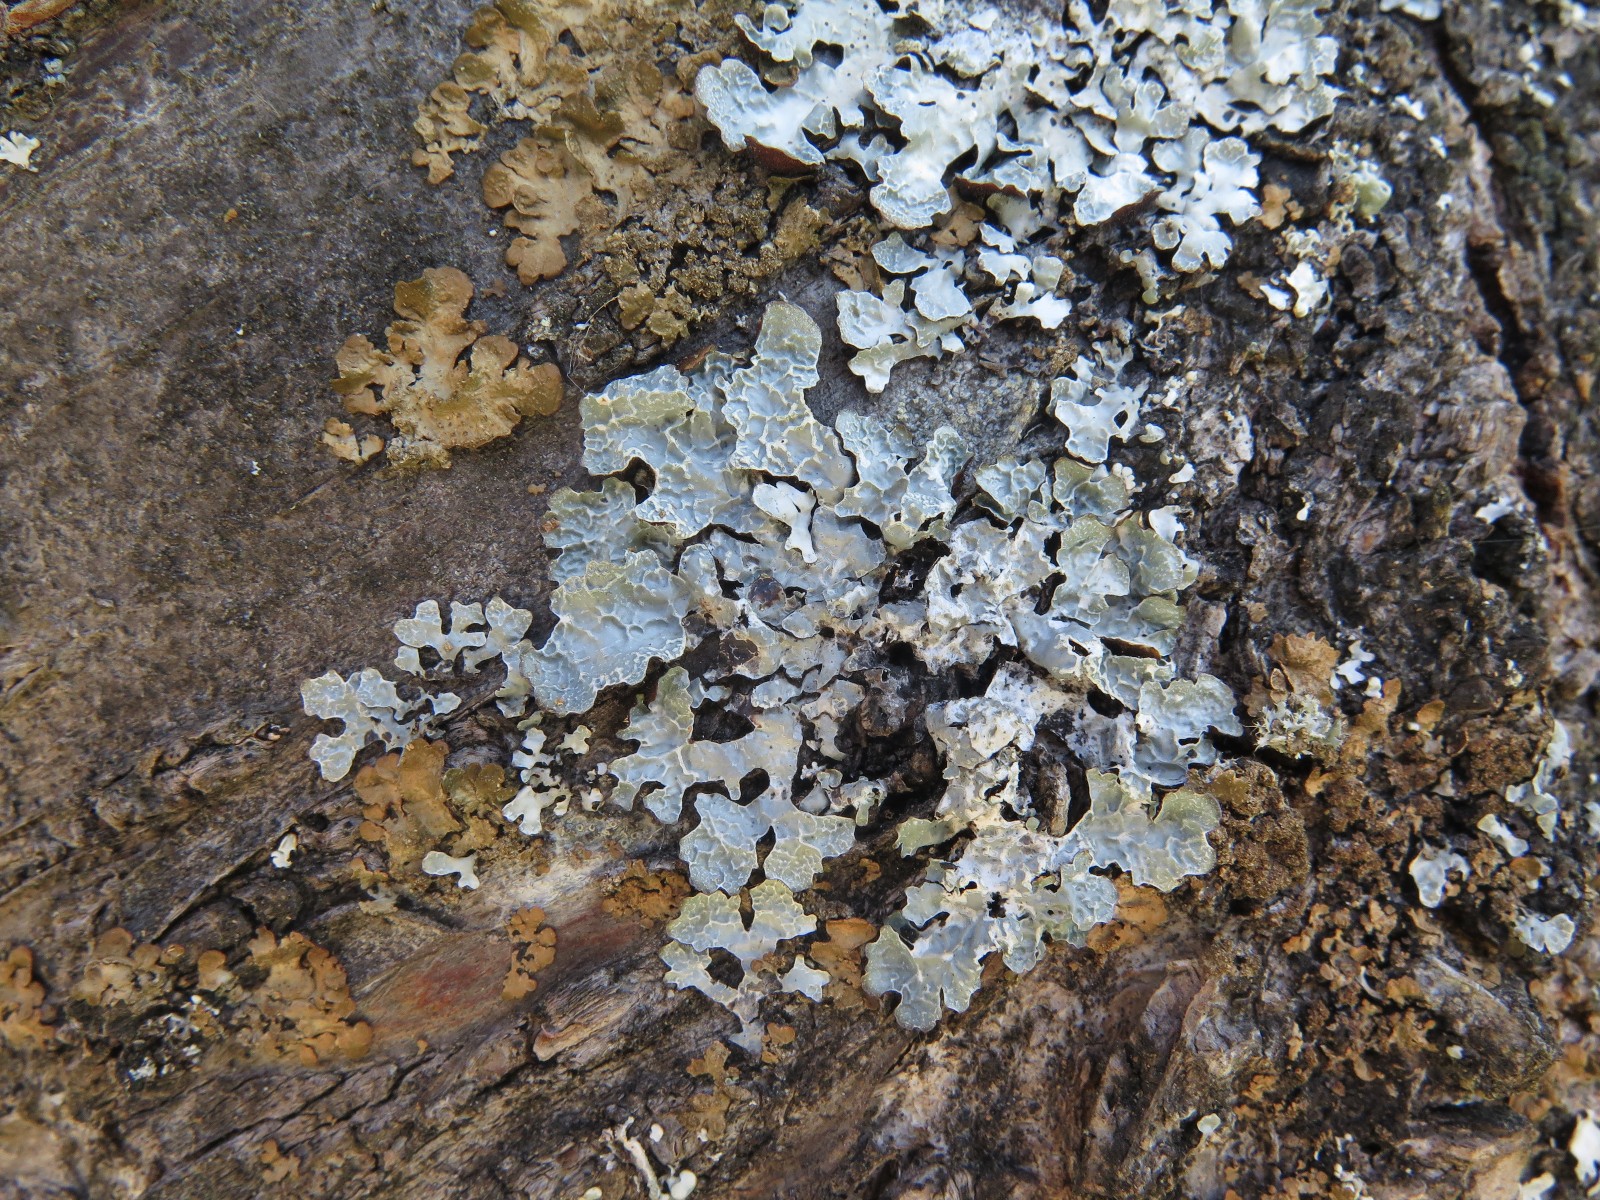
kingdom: Fungi
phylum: Ascomycota
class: Lecanoromycetes
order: Lecanorales
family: Parmeliaceae
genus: Parmelia
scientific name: Parmelia sulcata
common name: rynket skållav
